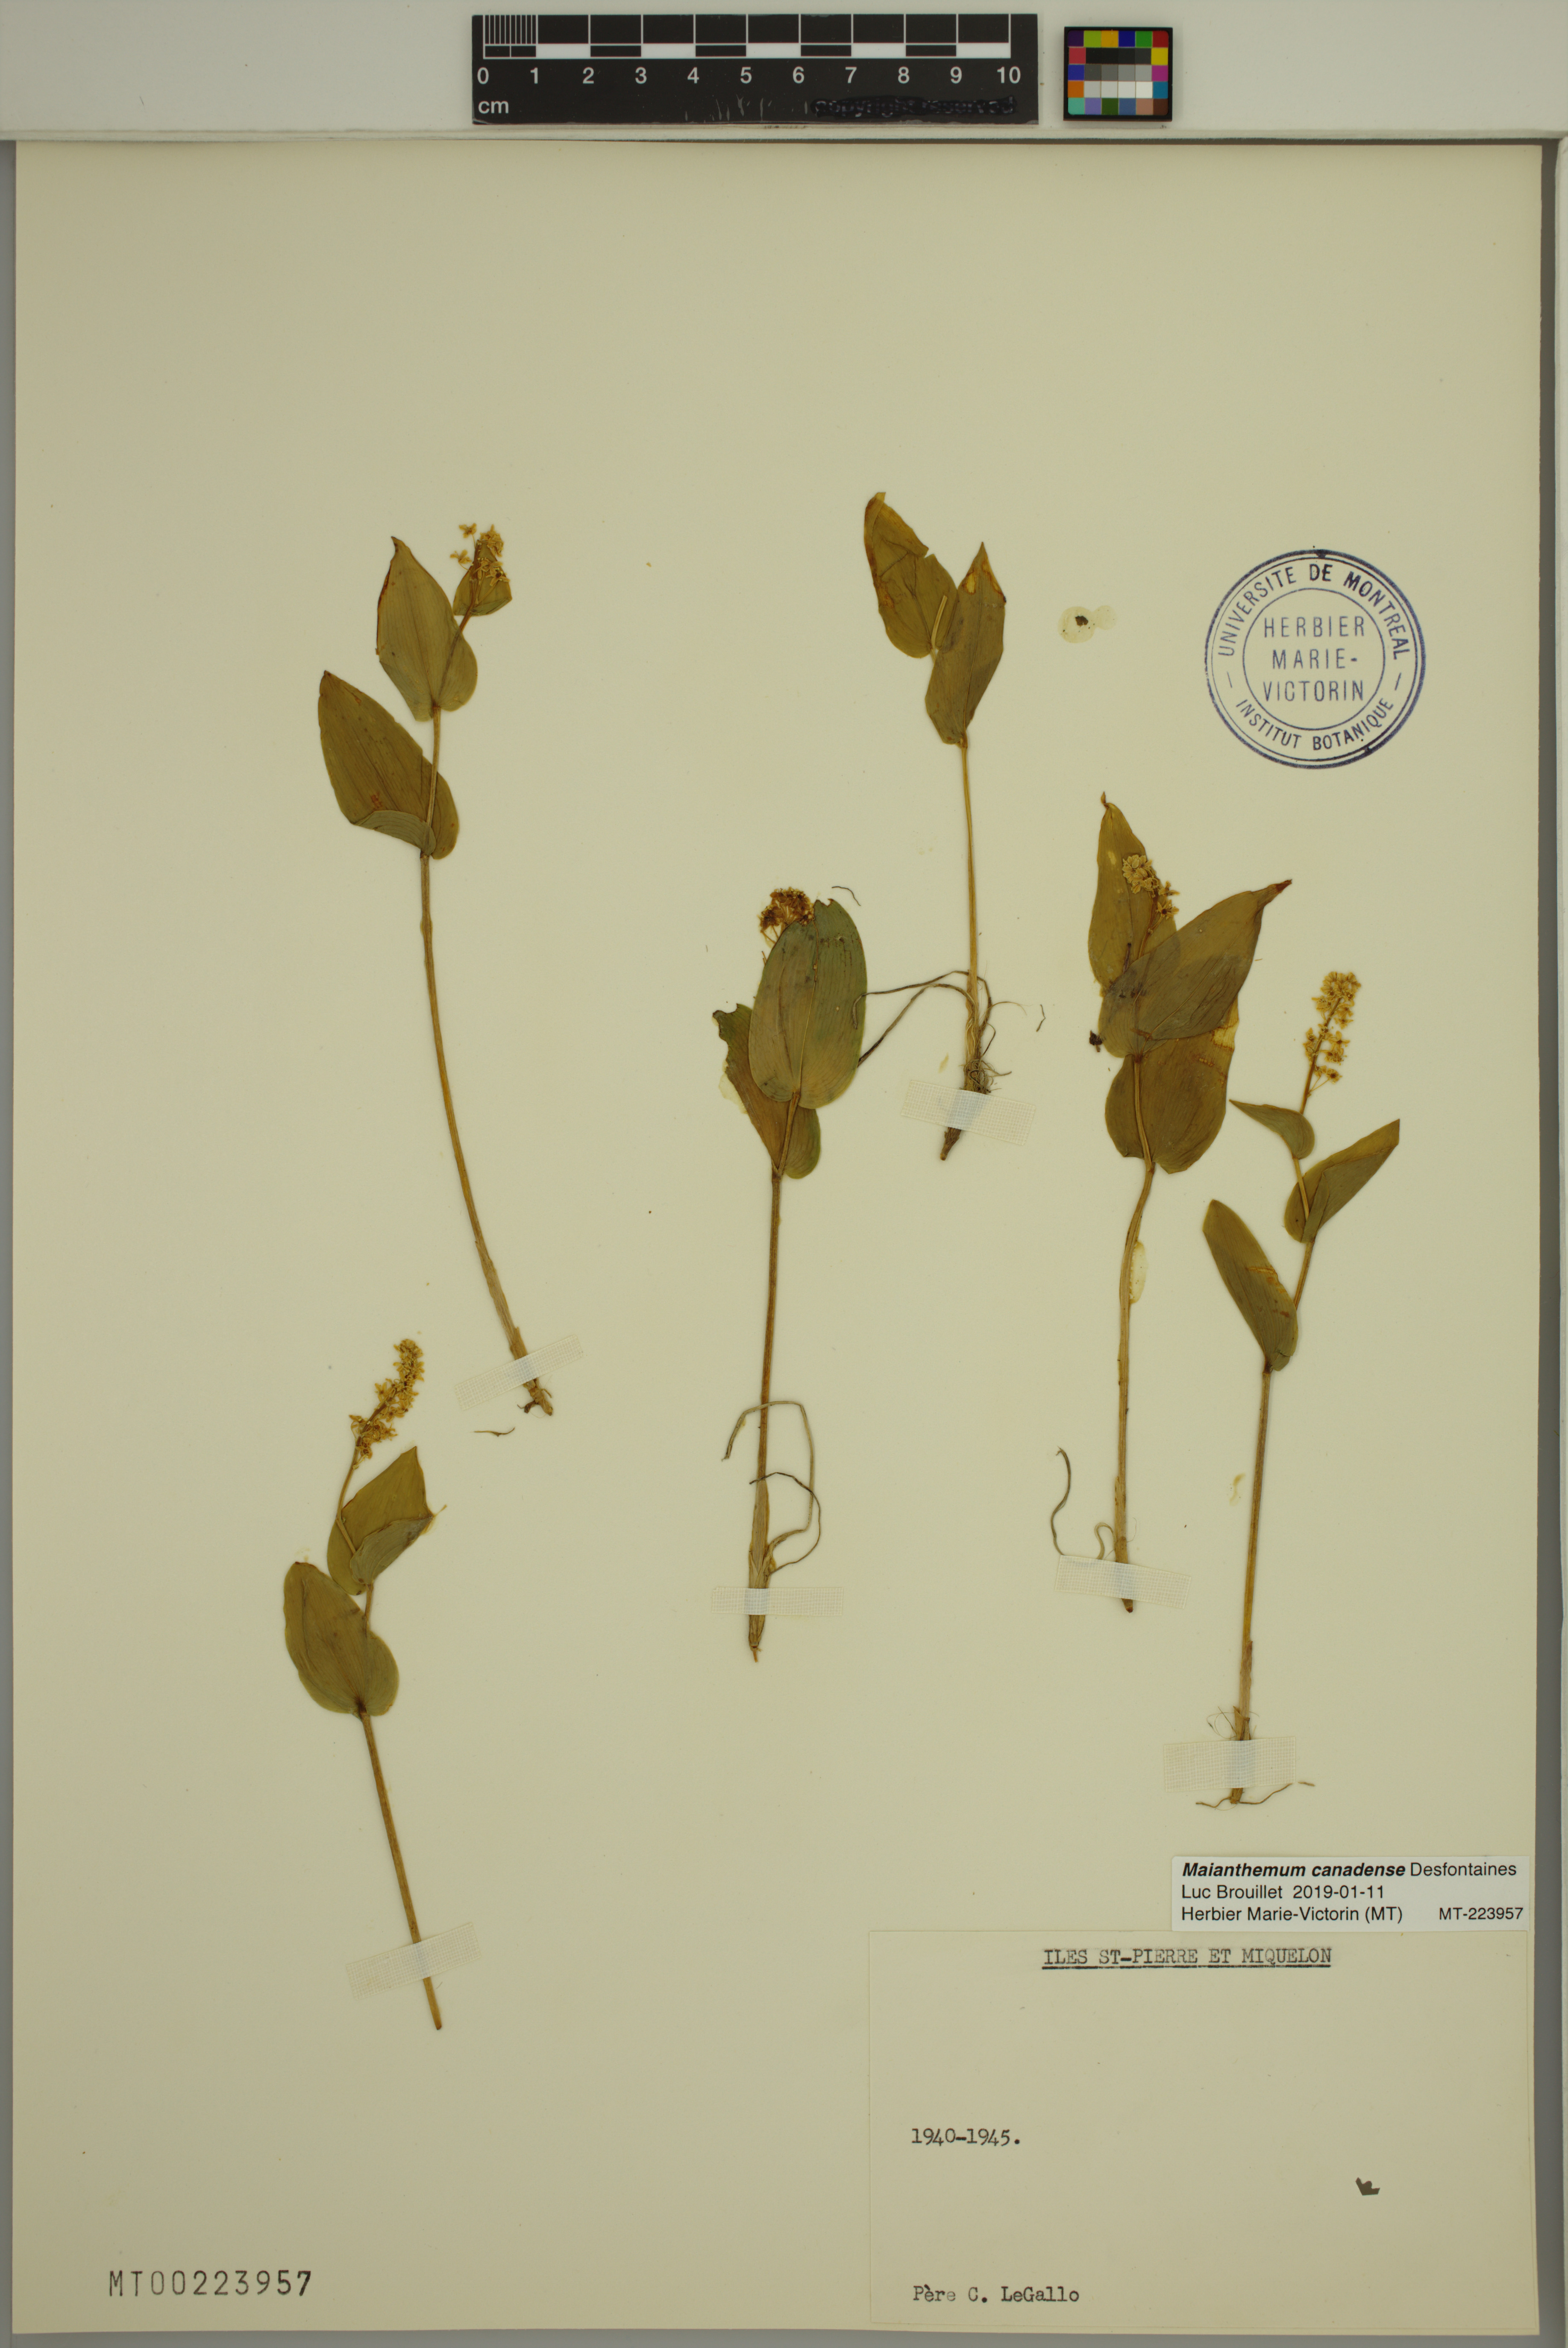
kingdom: Plantae
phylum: Tracheophyta
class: Liliopsida
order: Asparagales
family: Asparagaceae
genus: Maianthemum
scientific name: Maianthemum canadense
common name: False lily-of-the-valley
